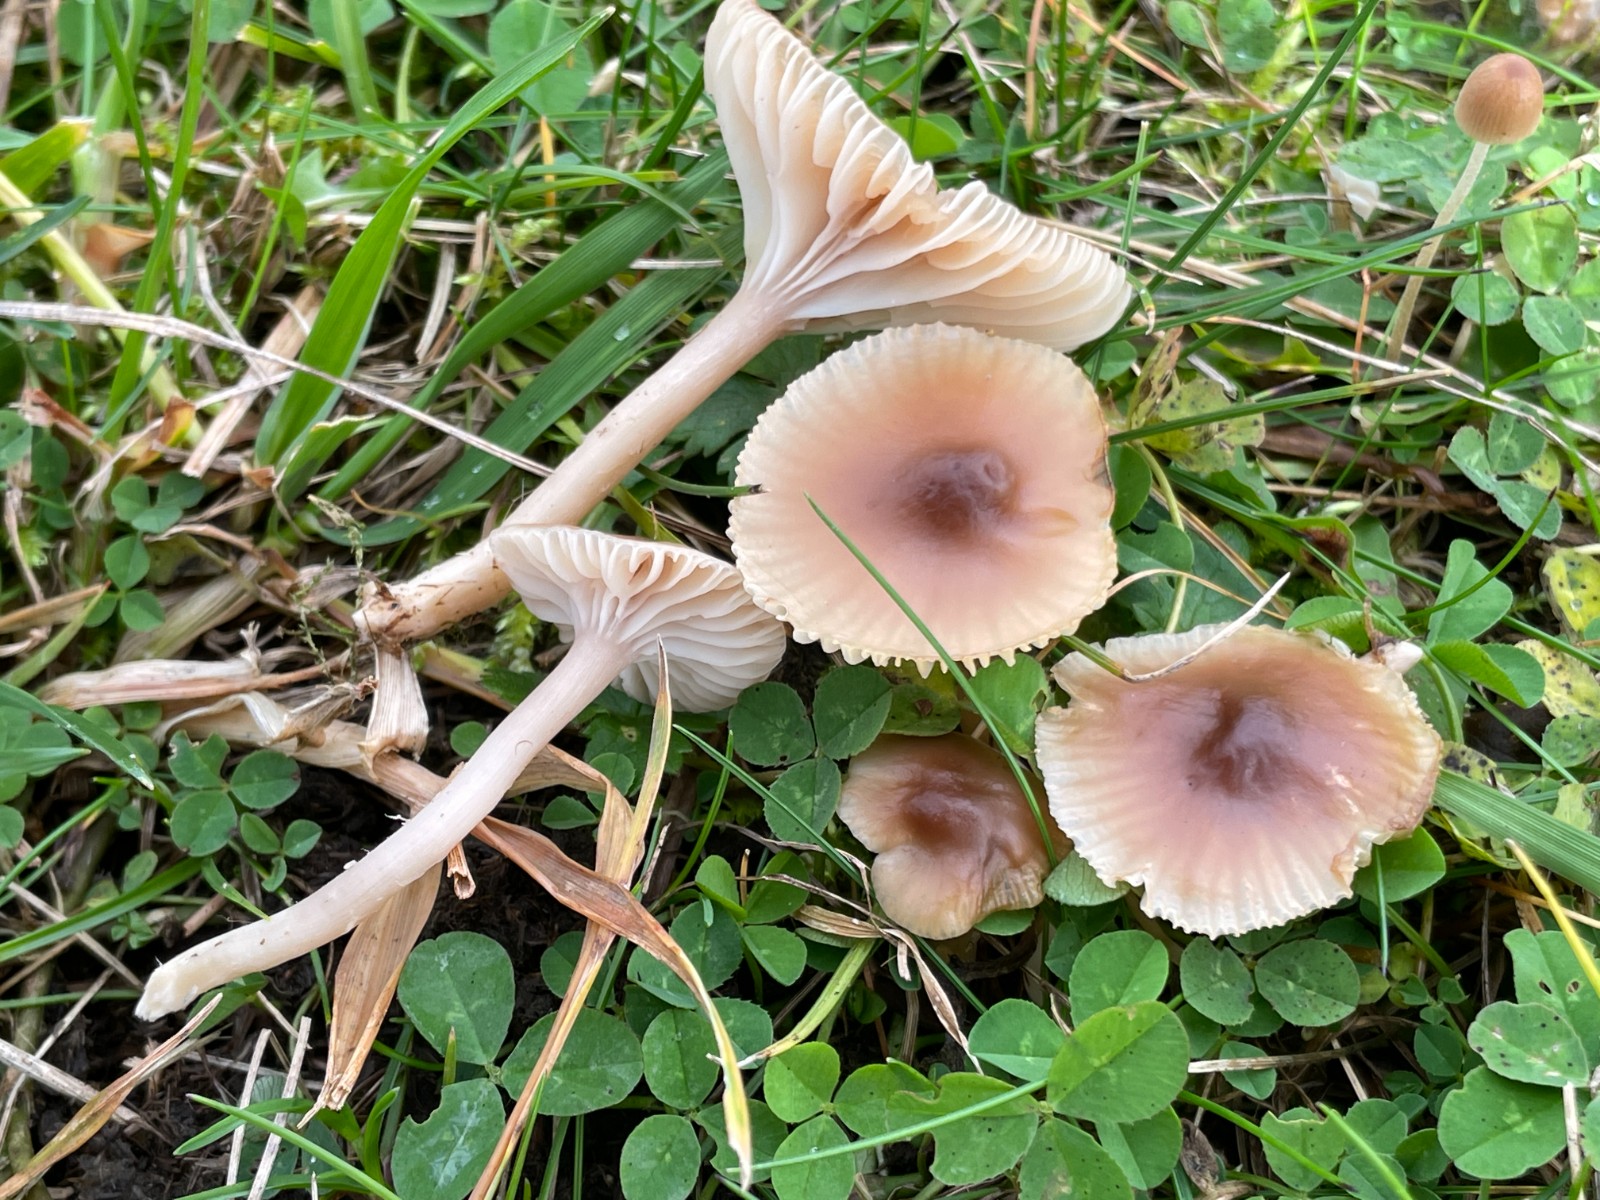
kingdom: Fungi
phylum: Basidiomycota
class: Agaricomycetes
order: Agaricales
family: Hygrophoraceae
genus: Cuphophyllus
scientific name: Cuphophyllus colemannianus
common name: rødbrun vokshat
